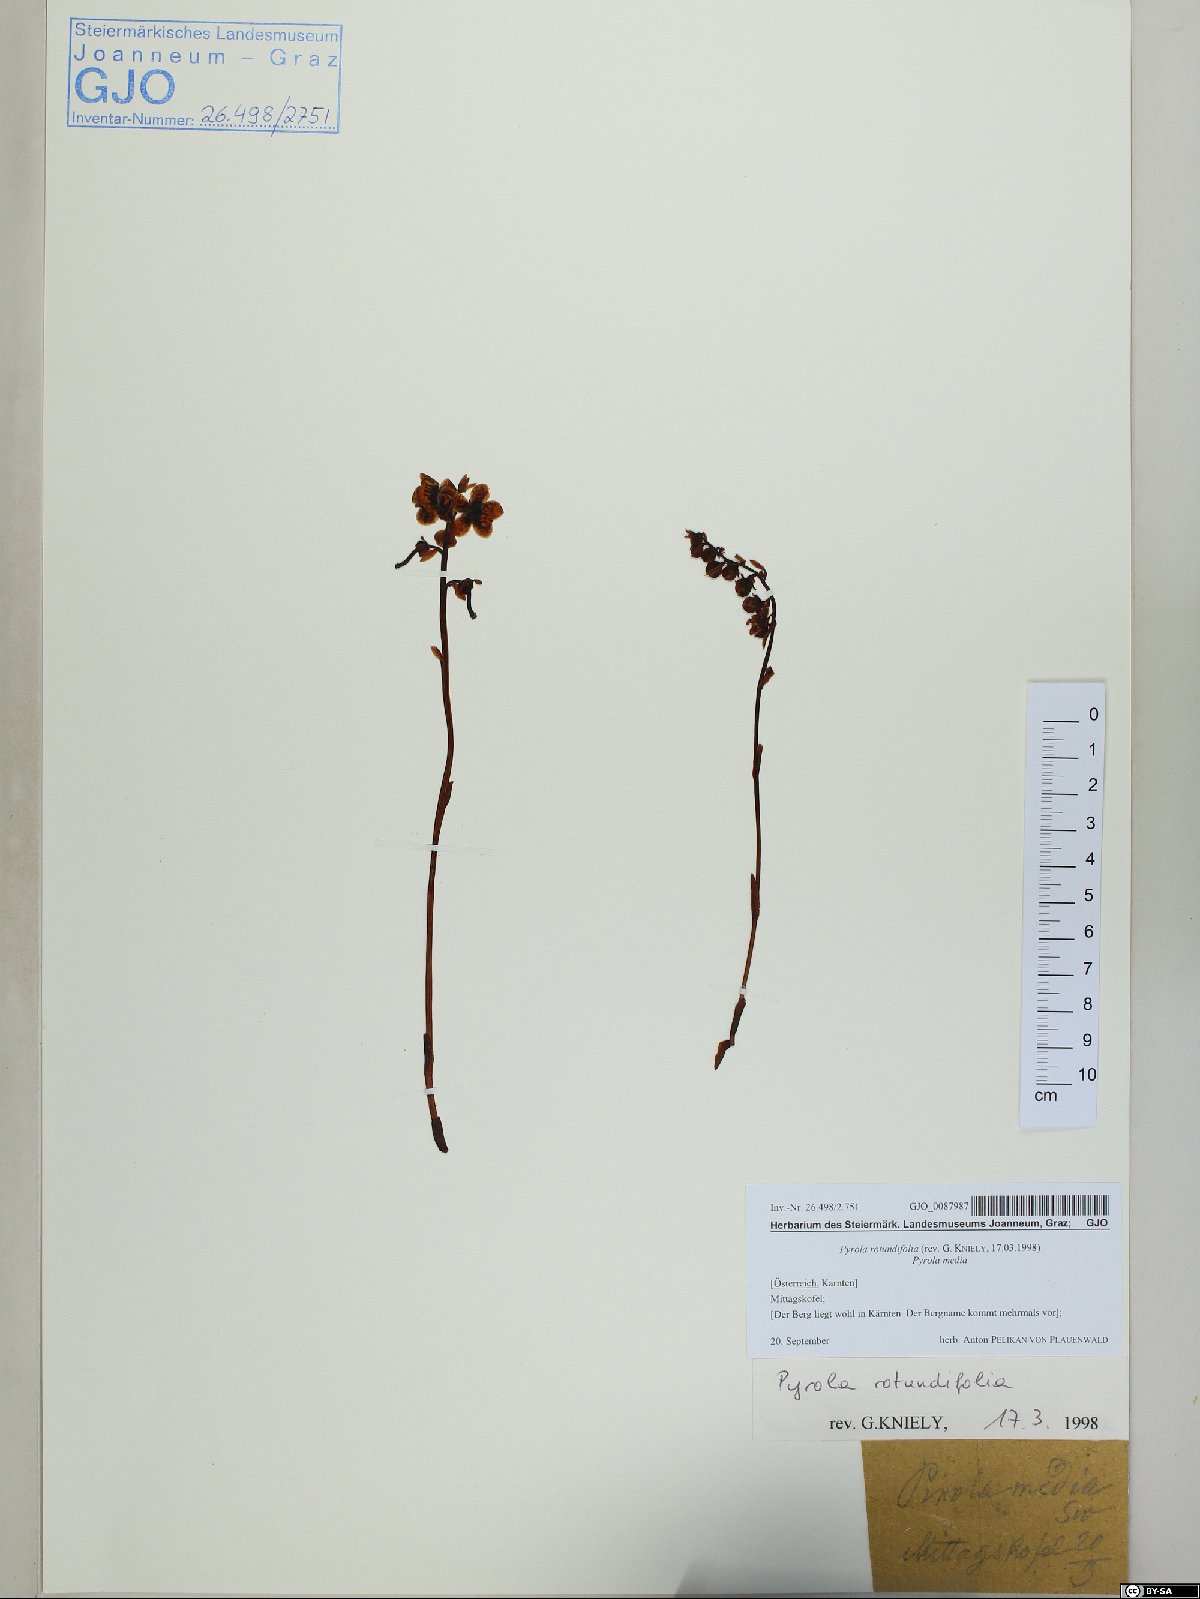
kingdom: Plantae
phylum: Tracheophyta
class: Magnoliopsida
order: Ericales
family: Ericaceae
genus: Pyrola
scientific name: Pyrola rotundifolia
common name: Round-leaved wintergreen
